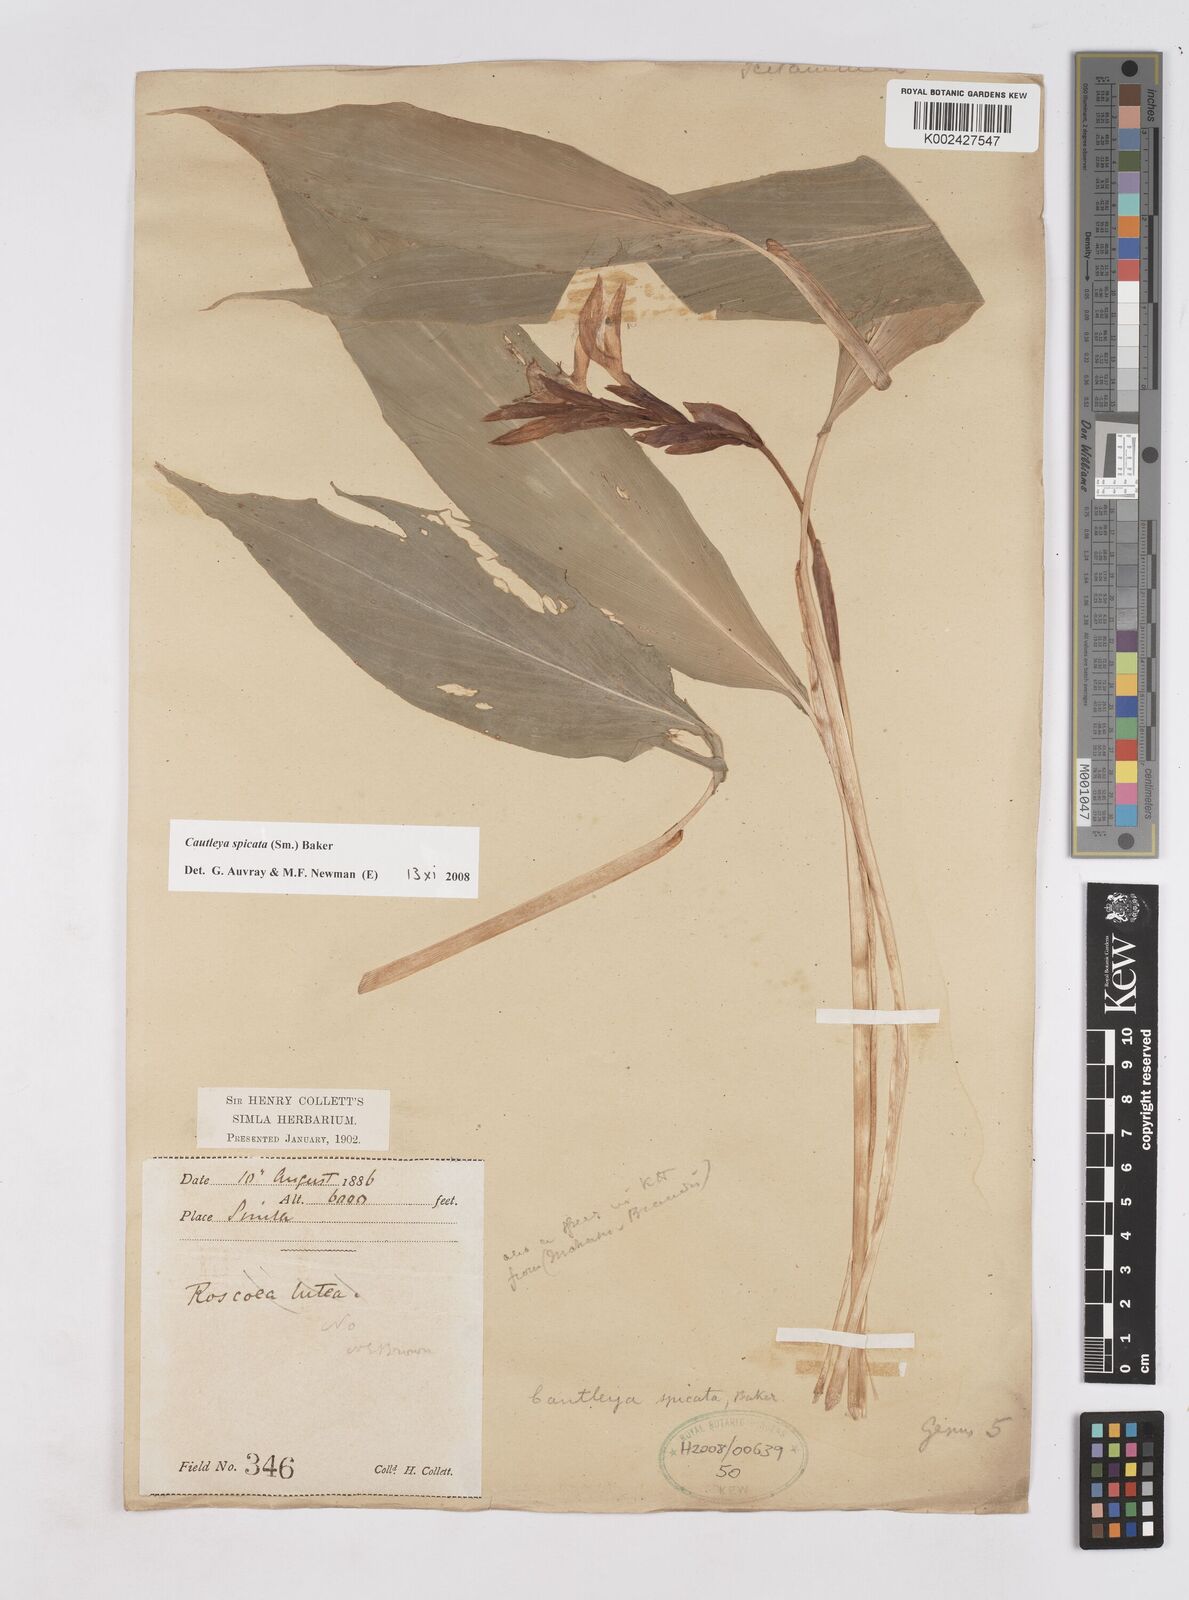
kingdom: Plantae
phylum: Tracheophyta
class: Liliopsida
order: Zingiberales
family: Zingiberaceae
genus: Cautleya
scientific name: Cautleya spicata
